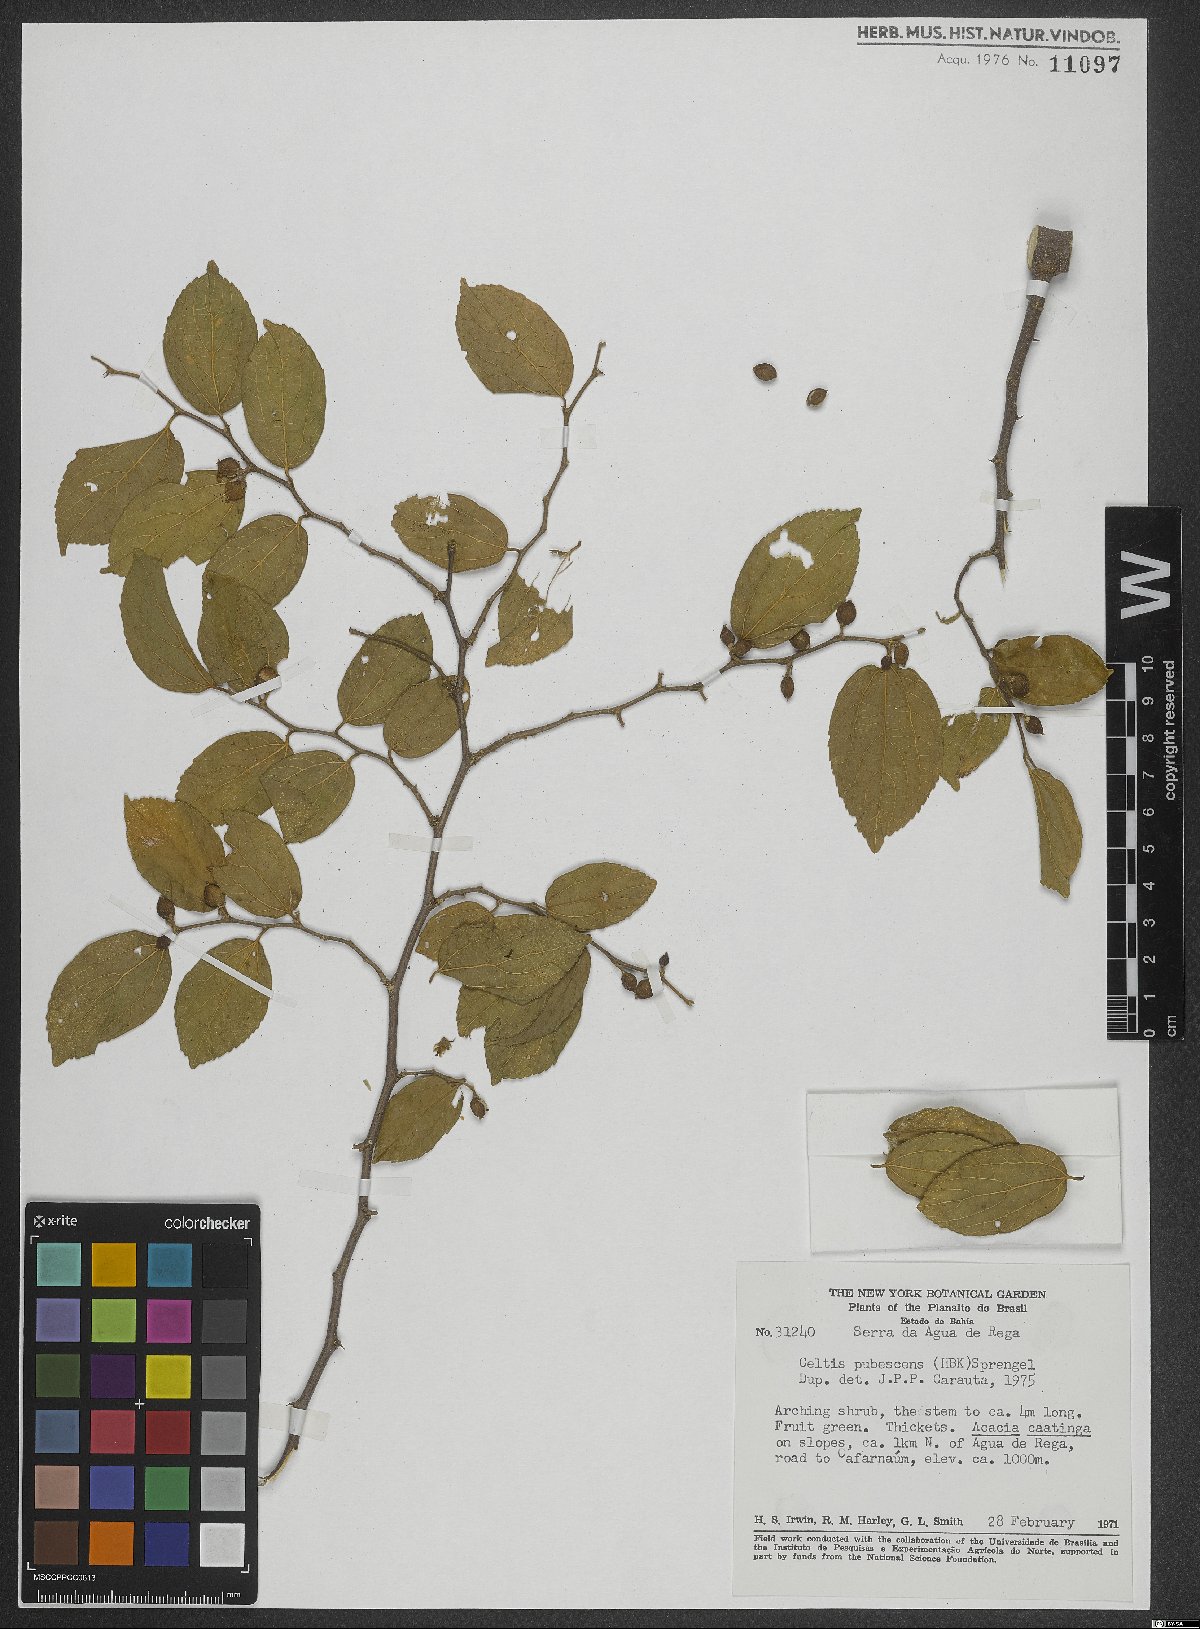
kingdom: Plantae
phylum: Tracheophyta
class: Magnoliopsida
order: Rosales
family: Cannabaceae
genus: Celtis
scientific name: Celtis iguanaea
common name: Iguana hackberry
